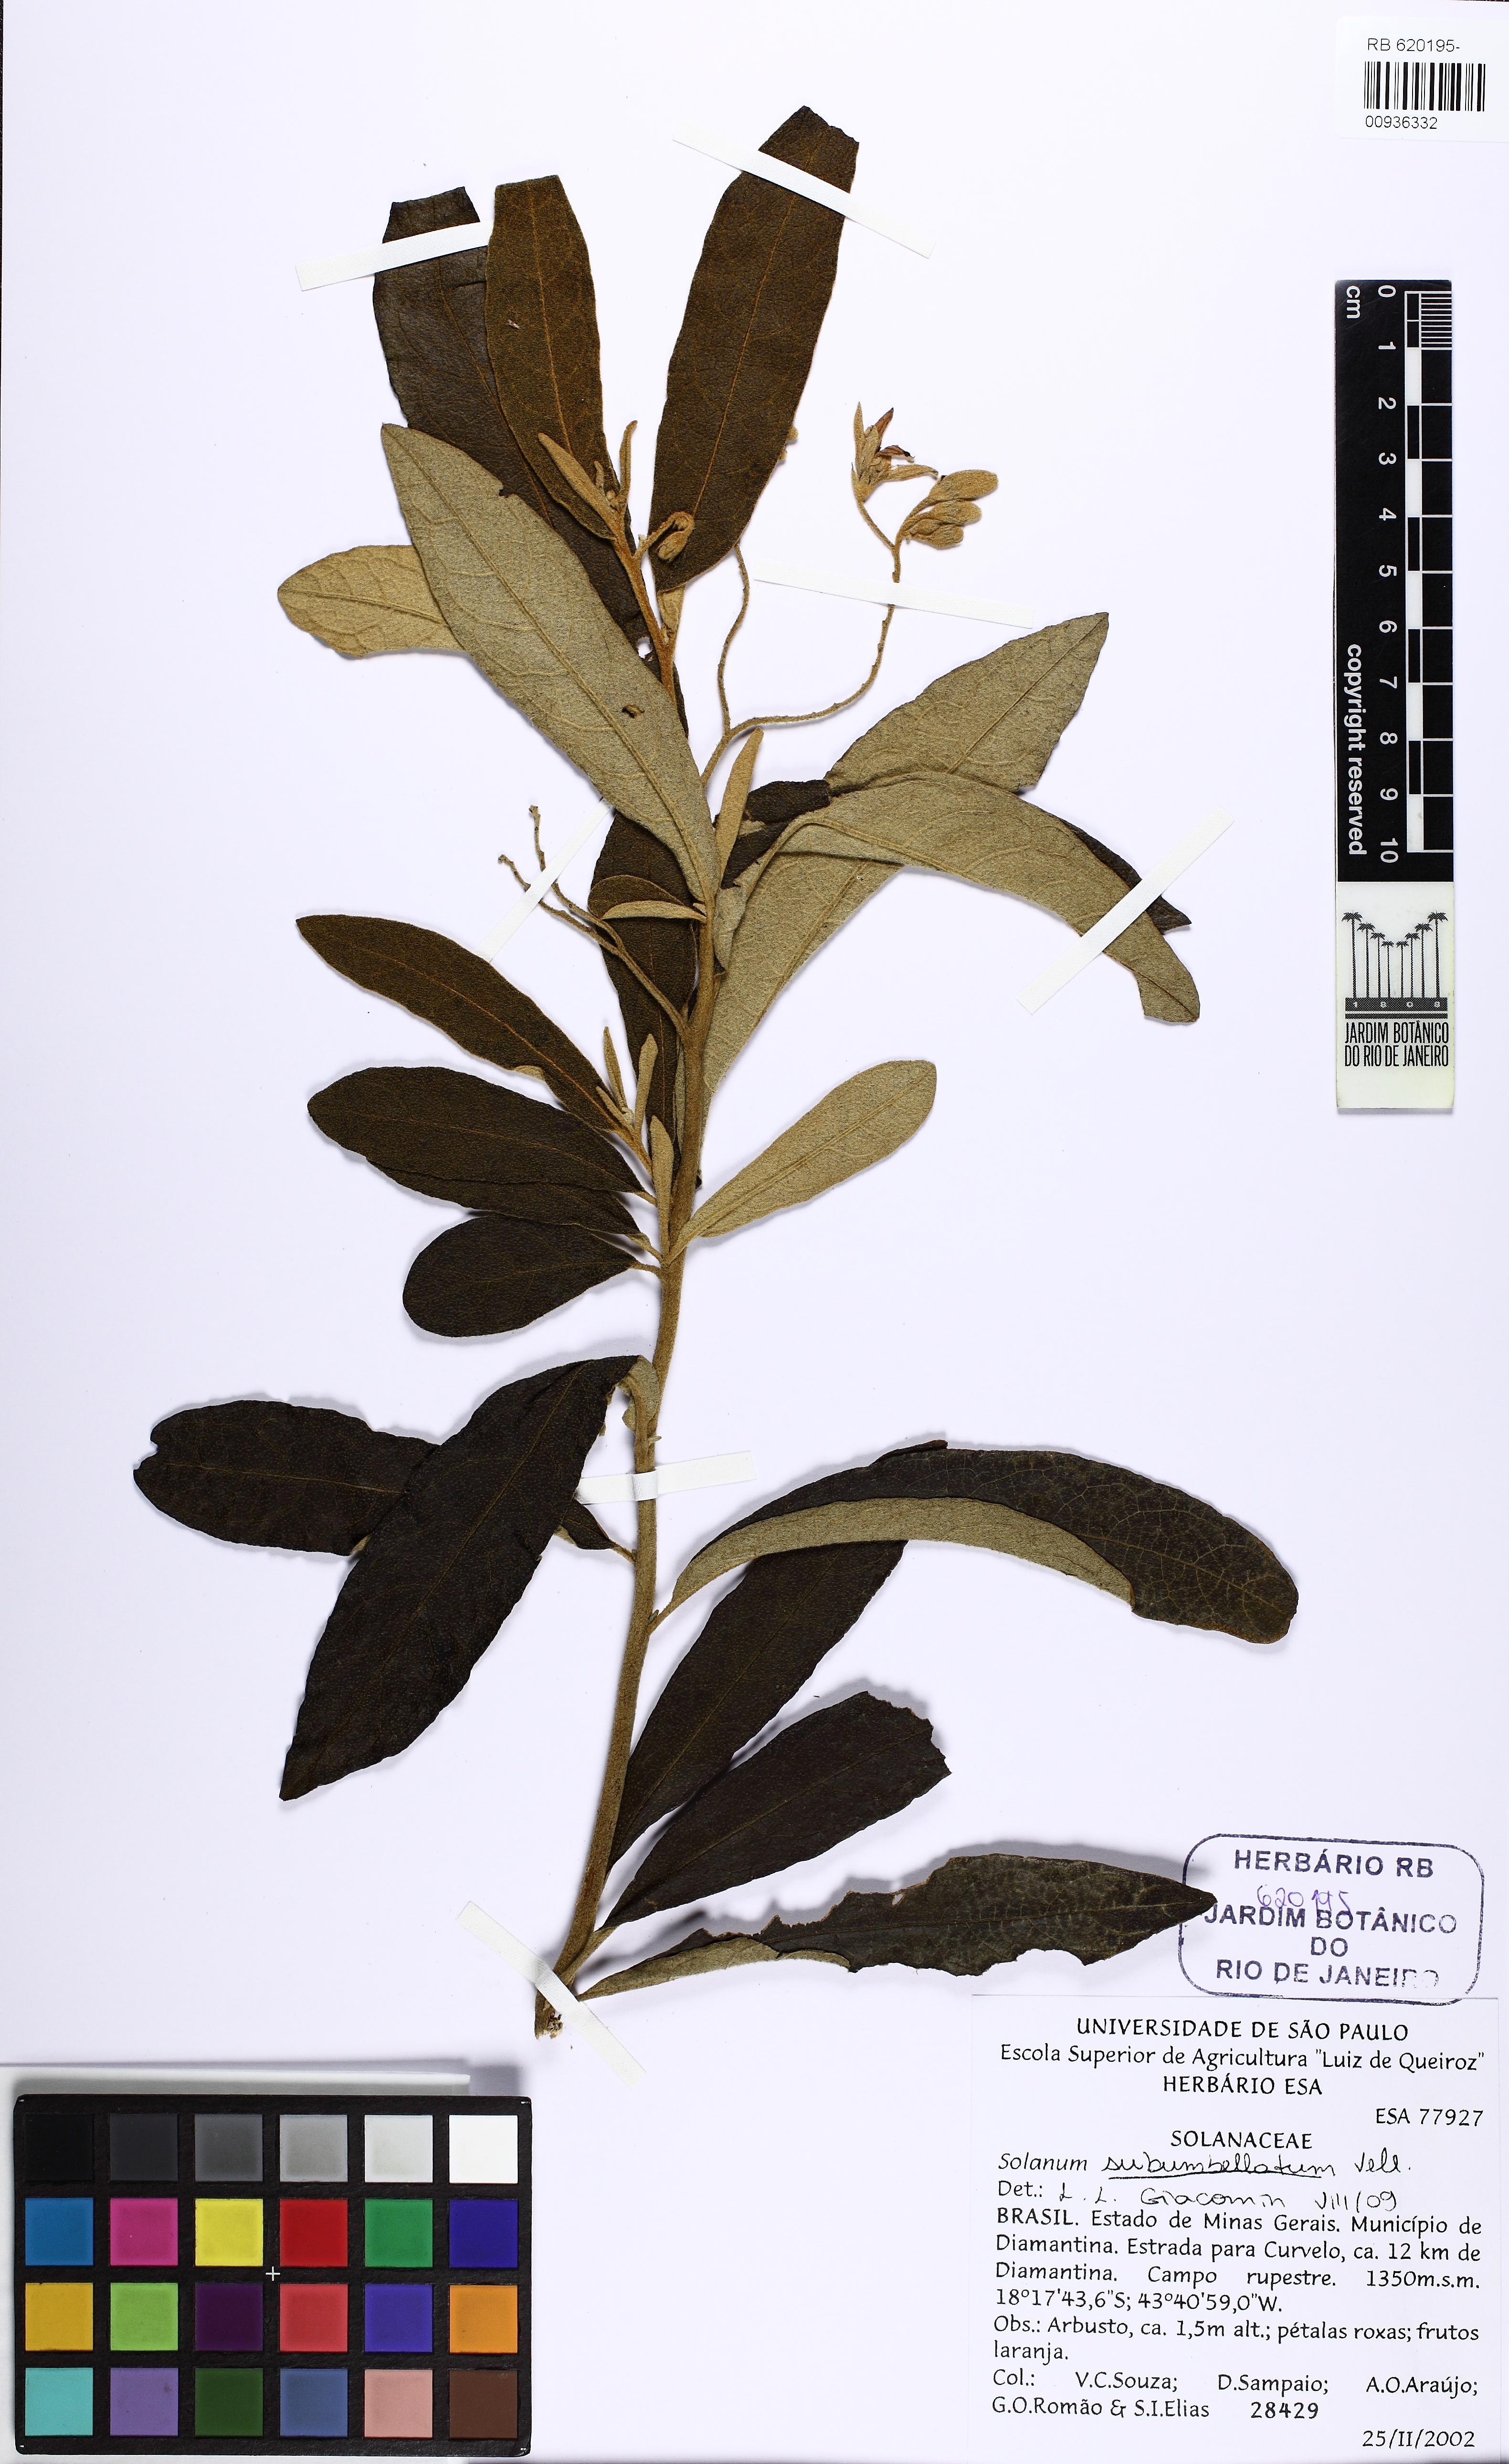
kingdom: Plantae
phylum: Tracheophyta
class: Magnoliopsida
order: Solanales
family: Solanaceae
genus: Solanum
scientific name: Solanum subumbellatum
